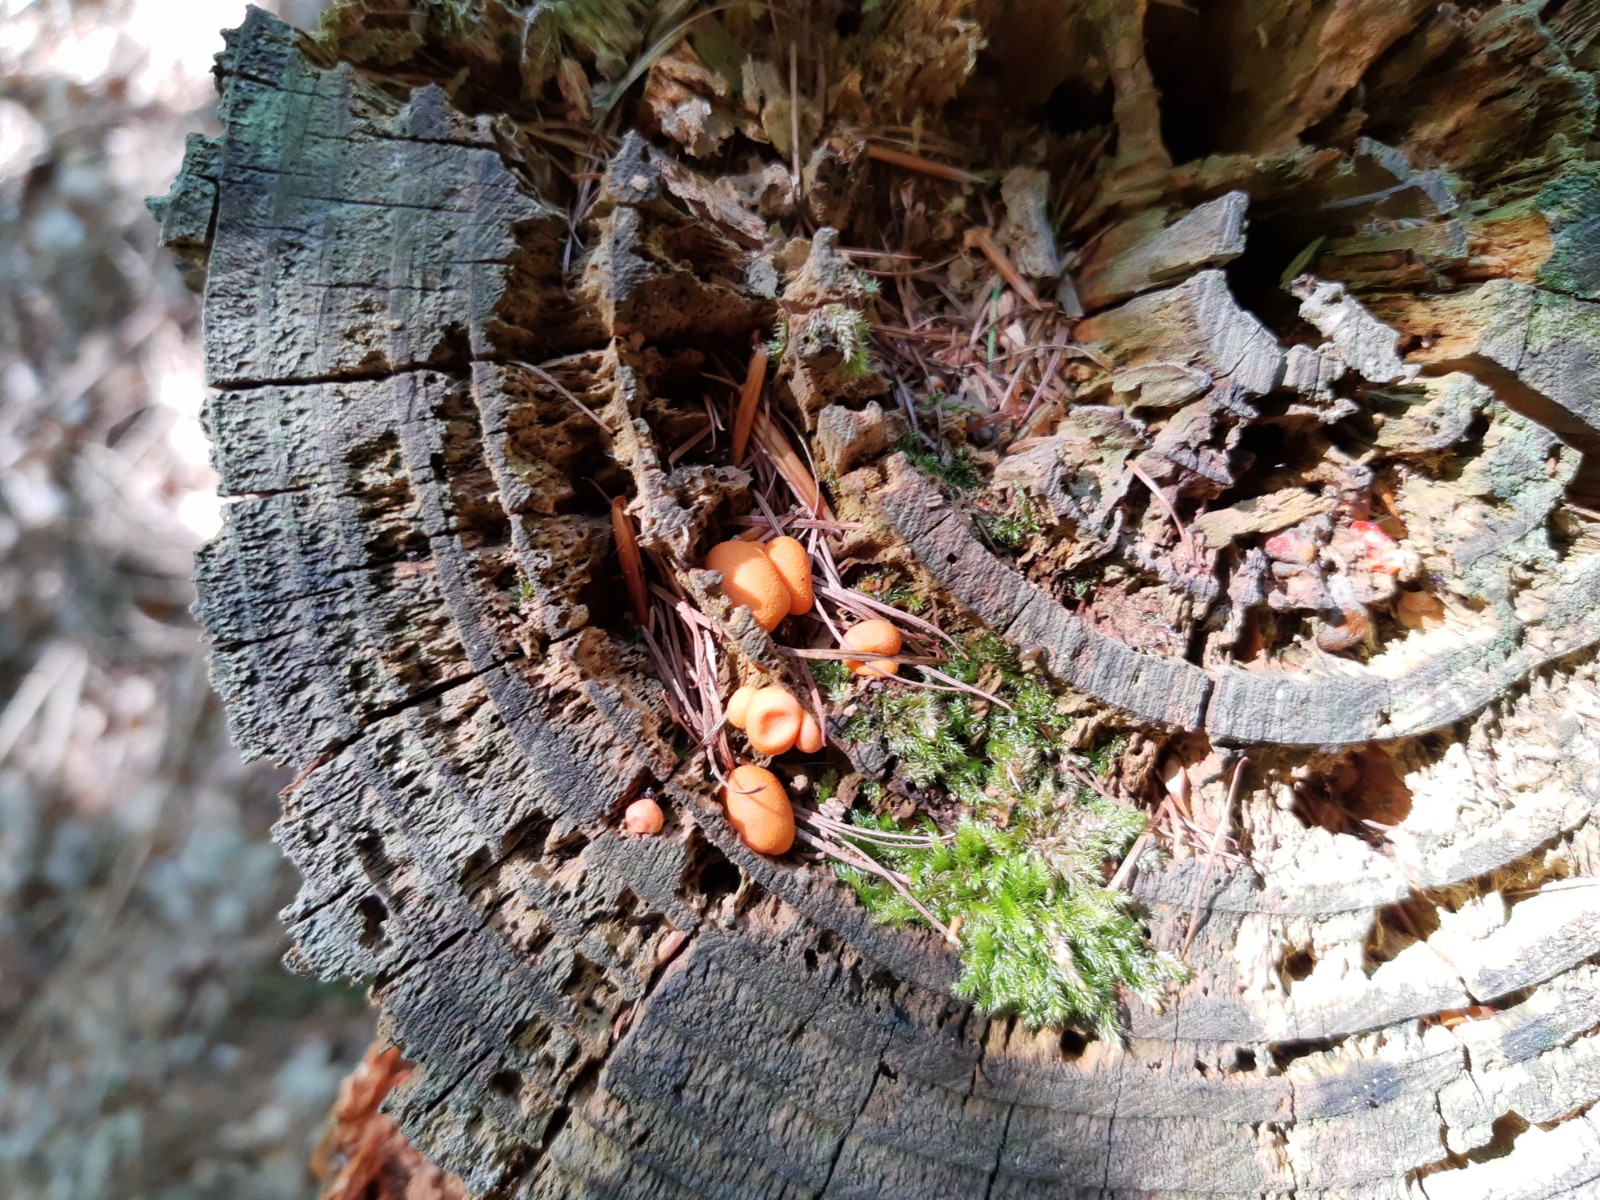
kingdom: Protozoa
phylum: Mycetozoa
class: Myxomycetes
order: Cribrariales
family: Tubiferaceae
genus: Lycogala
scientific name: Lycogala epidendrum
